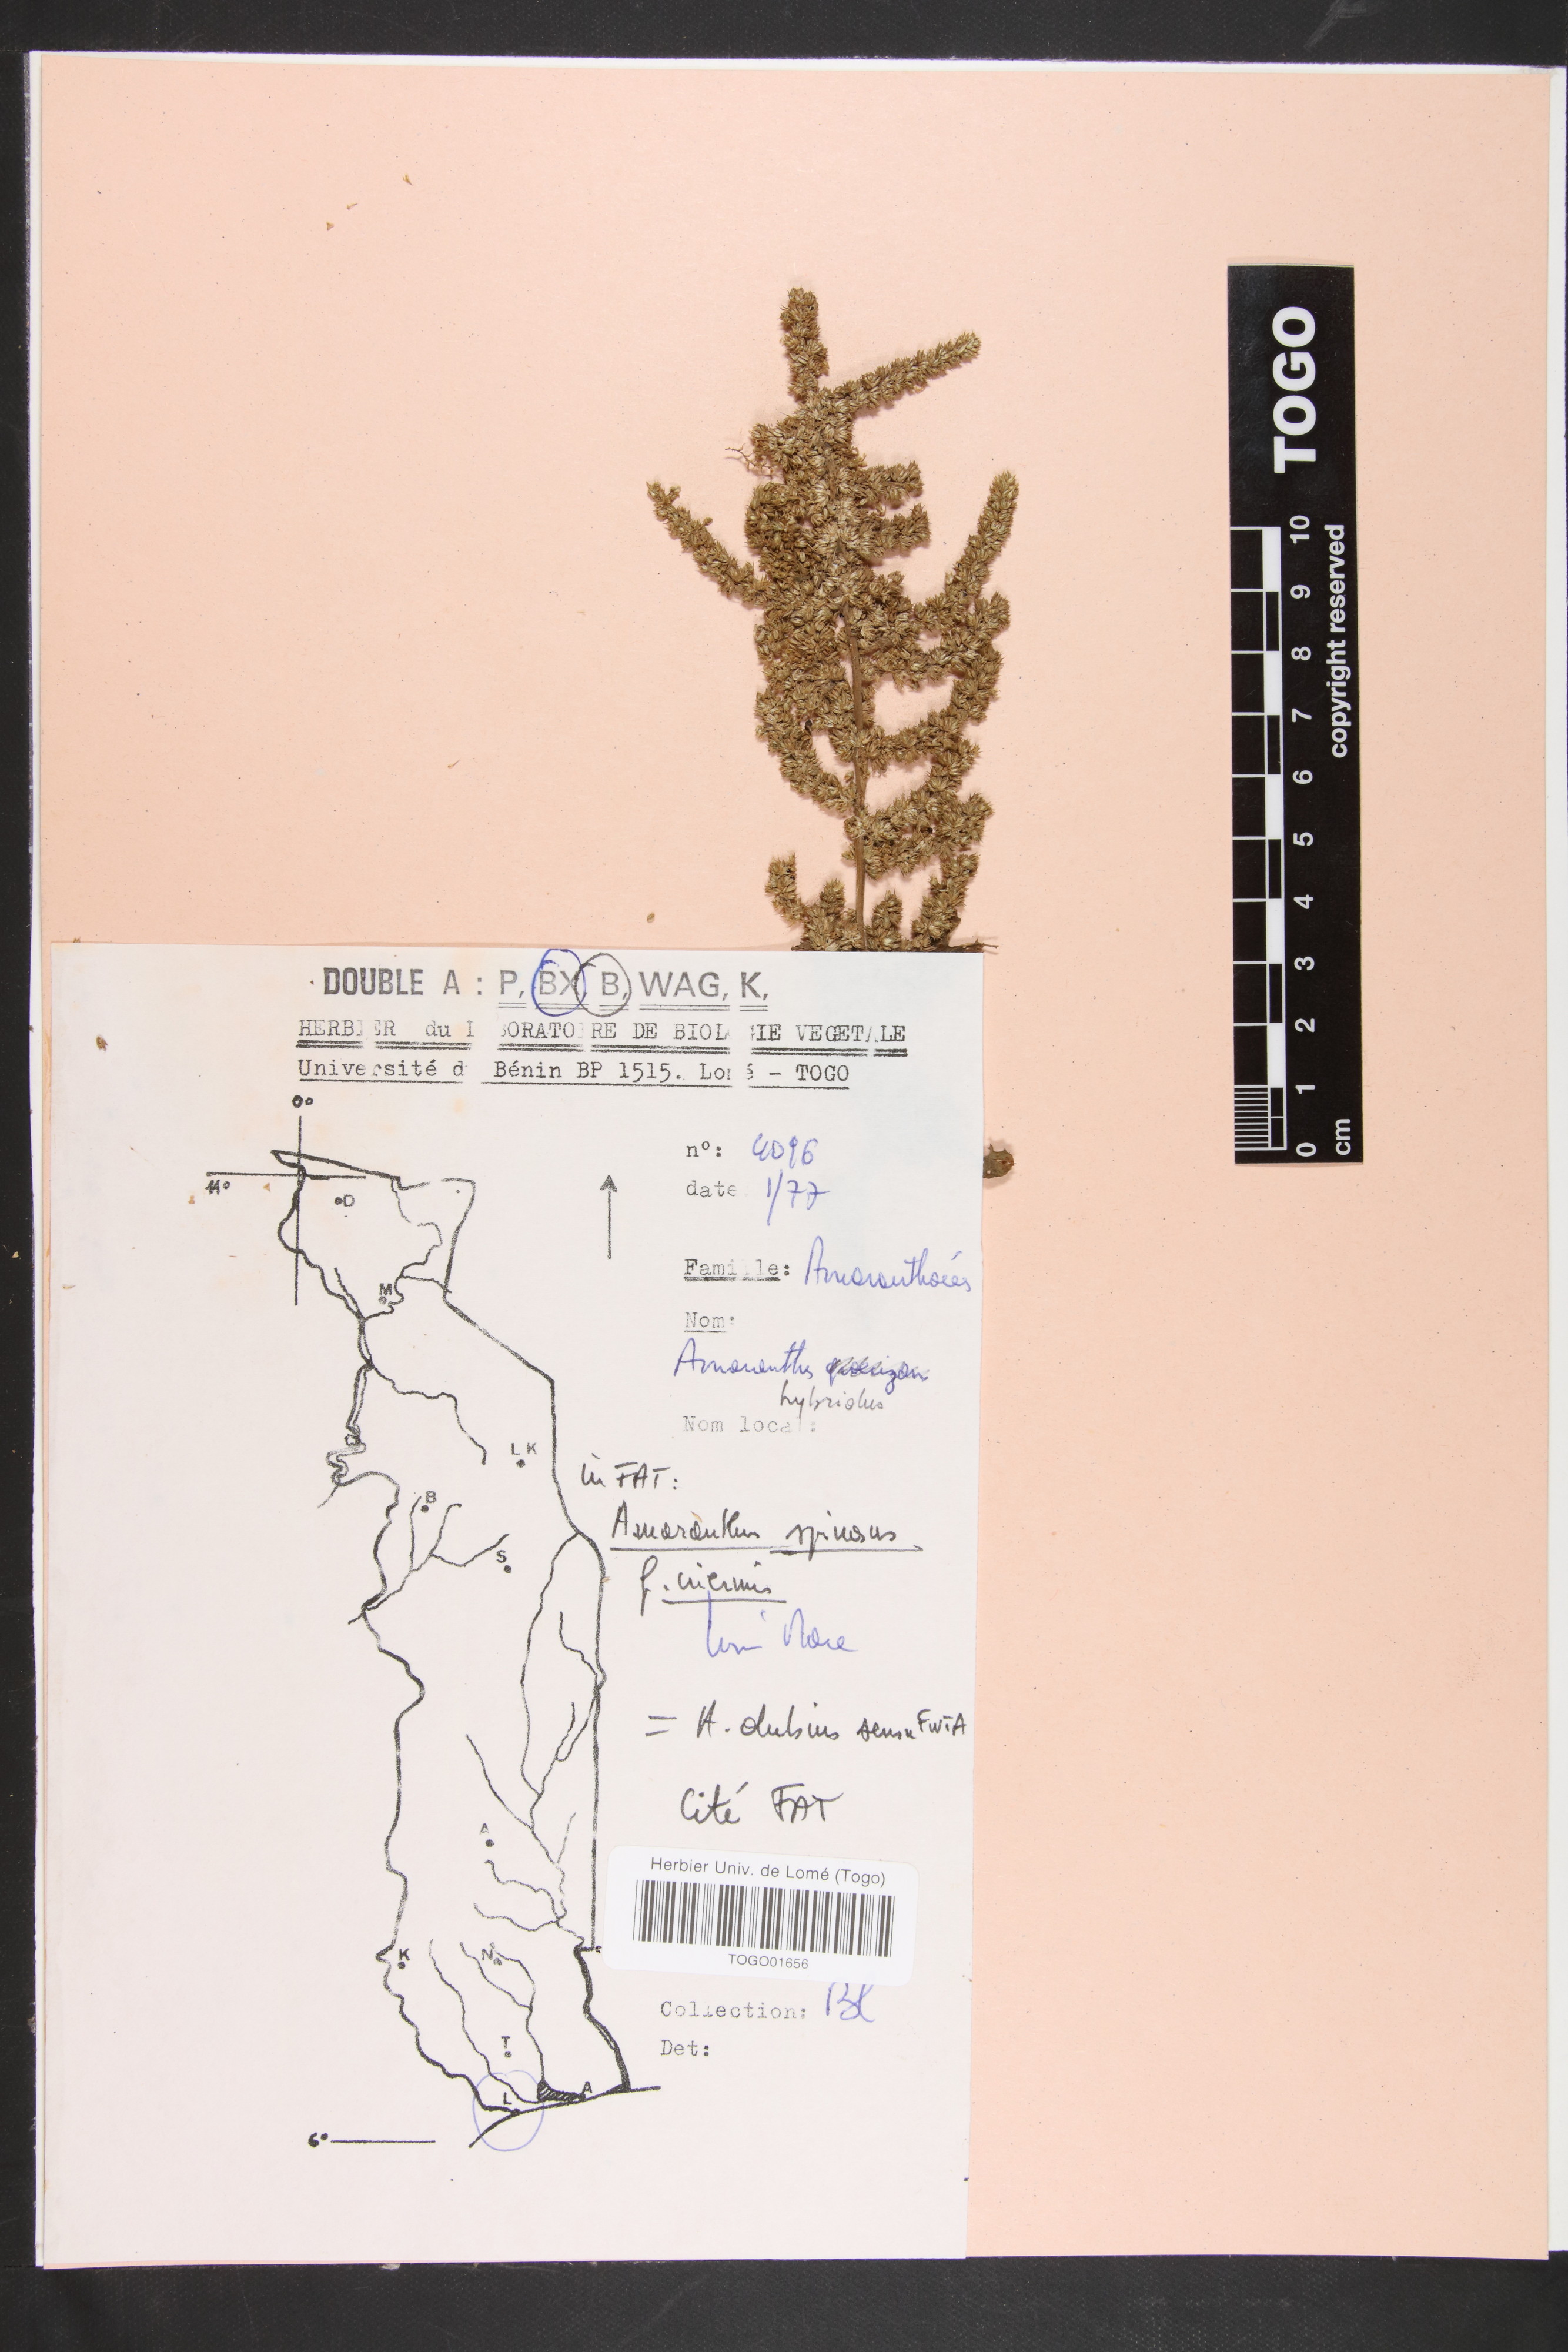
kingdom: Plantae
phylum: Tracheophyta
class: Magnoliopsida
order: Caryophyllales
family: Amaranthaceae
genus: Amaranthus
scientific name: Amaranthus spinosus
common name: Spiny amaranth
